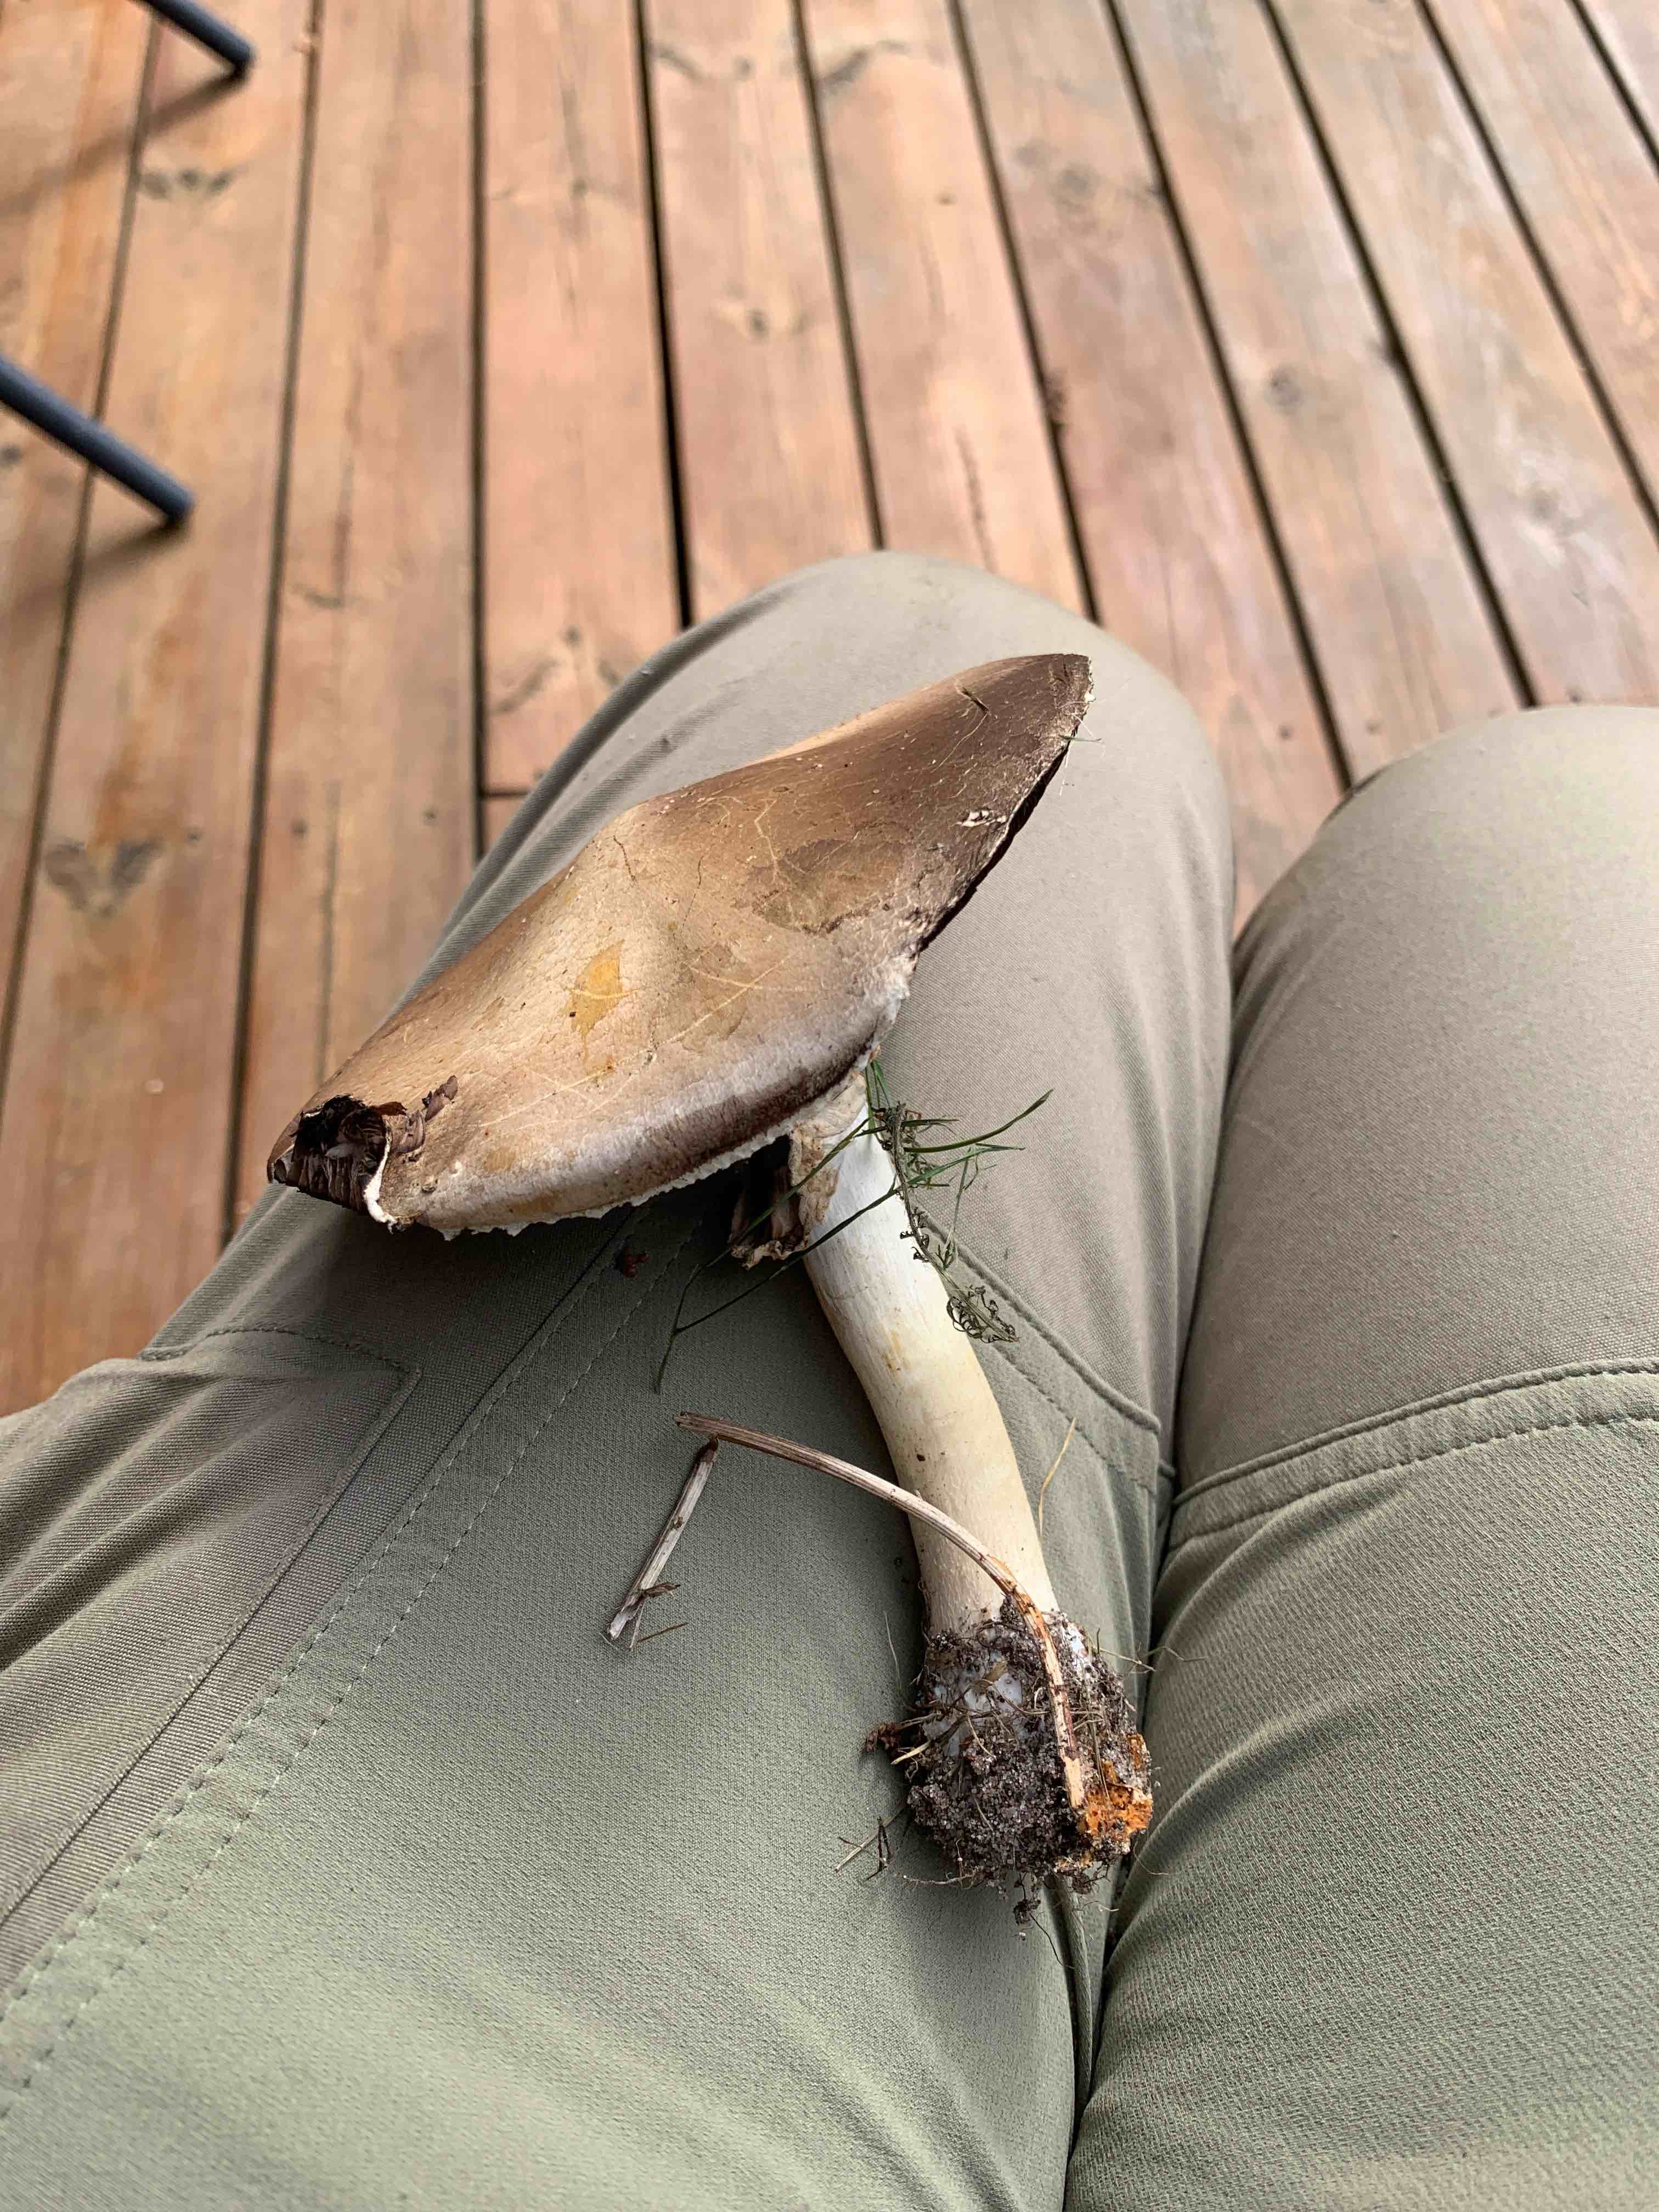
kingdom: Fungi
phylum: Basidiomycota
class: Agaricomycetes
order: Agaricales
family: Agaricaceae
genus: Agaricus
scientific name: Agaricus
